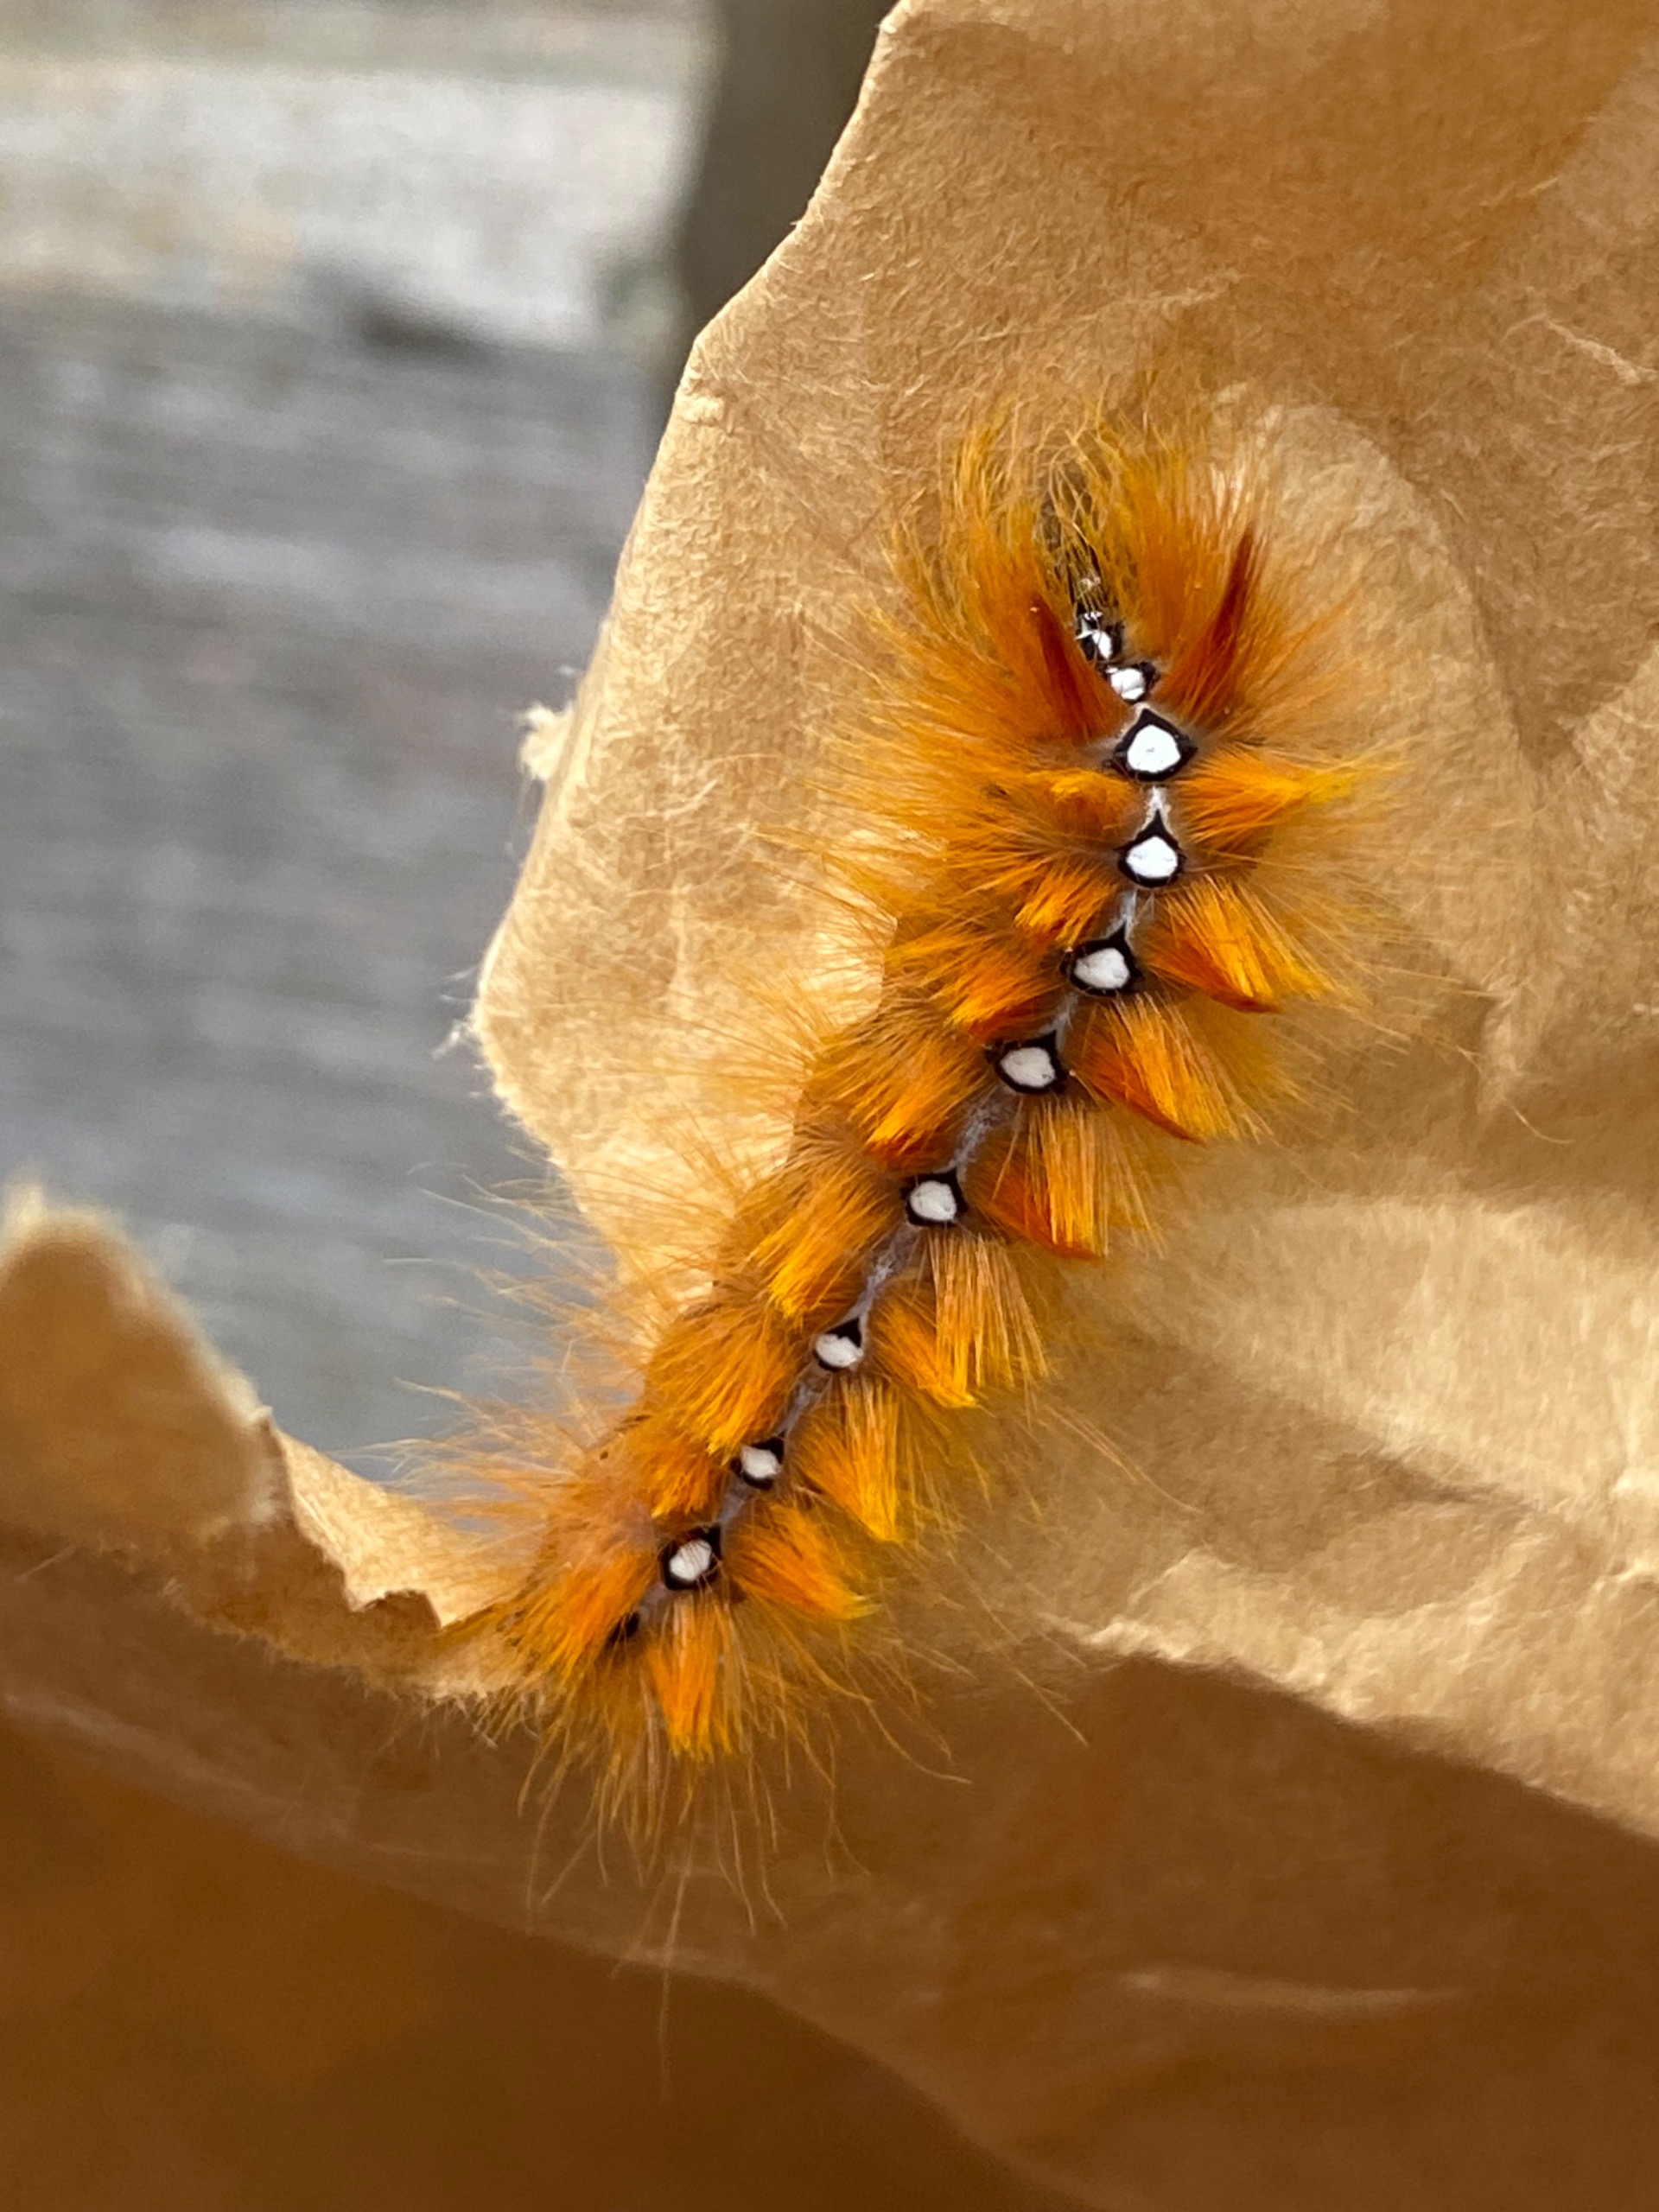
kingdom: Animalia
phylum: Arthropoda
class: Insecta
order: Lepidoptera
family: Noctuidae
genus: Acronicta
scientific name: Acronicta aceris
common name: Ahornugle
